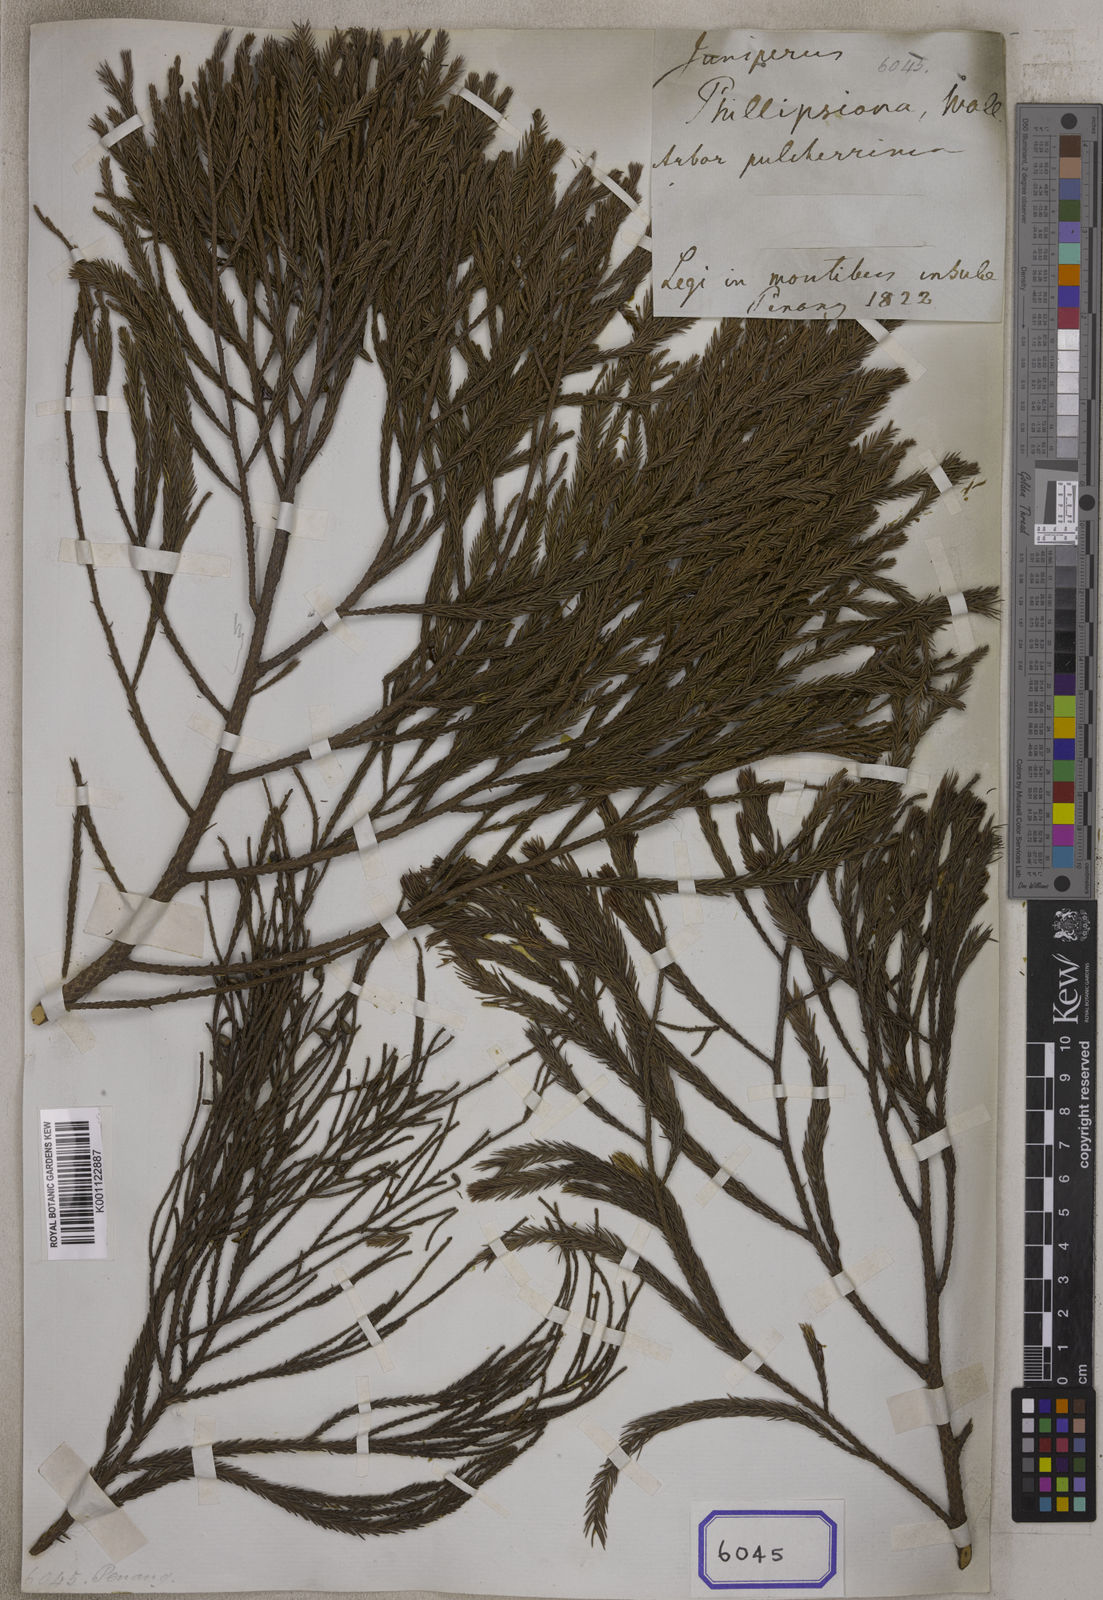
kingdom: Plantae
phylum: Tracheophyta
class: Pinopsida
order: Pinales
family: Podocarpaceae
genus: Dacrydium
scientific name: Dacrydium
